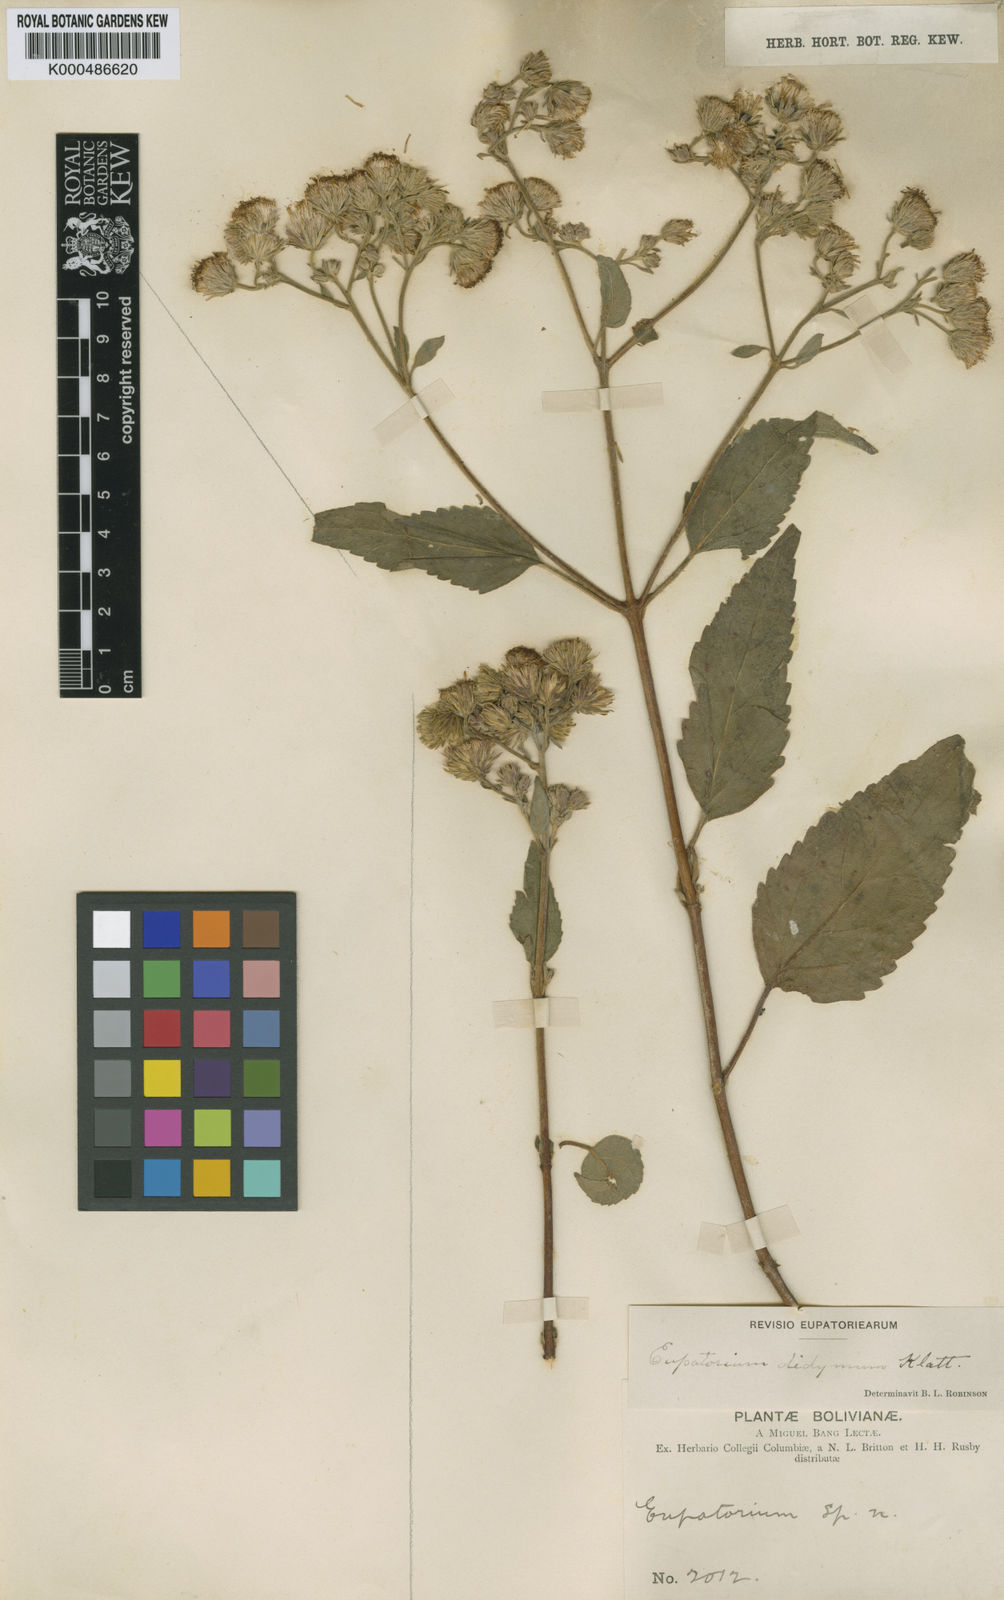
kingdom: Plantae
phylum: Tracheophyta
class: Magnoliopsida
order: Asterales
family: Asteraceae
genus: Heterocondylus
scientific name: Heterocondylus didymus
